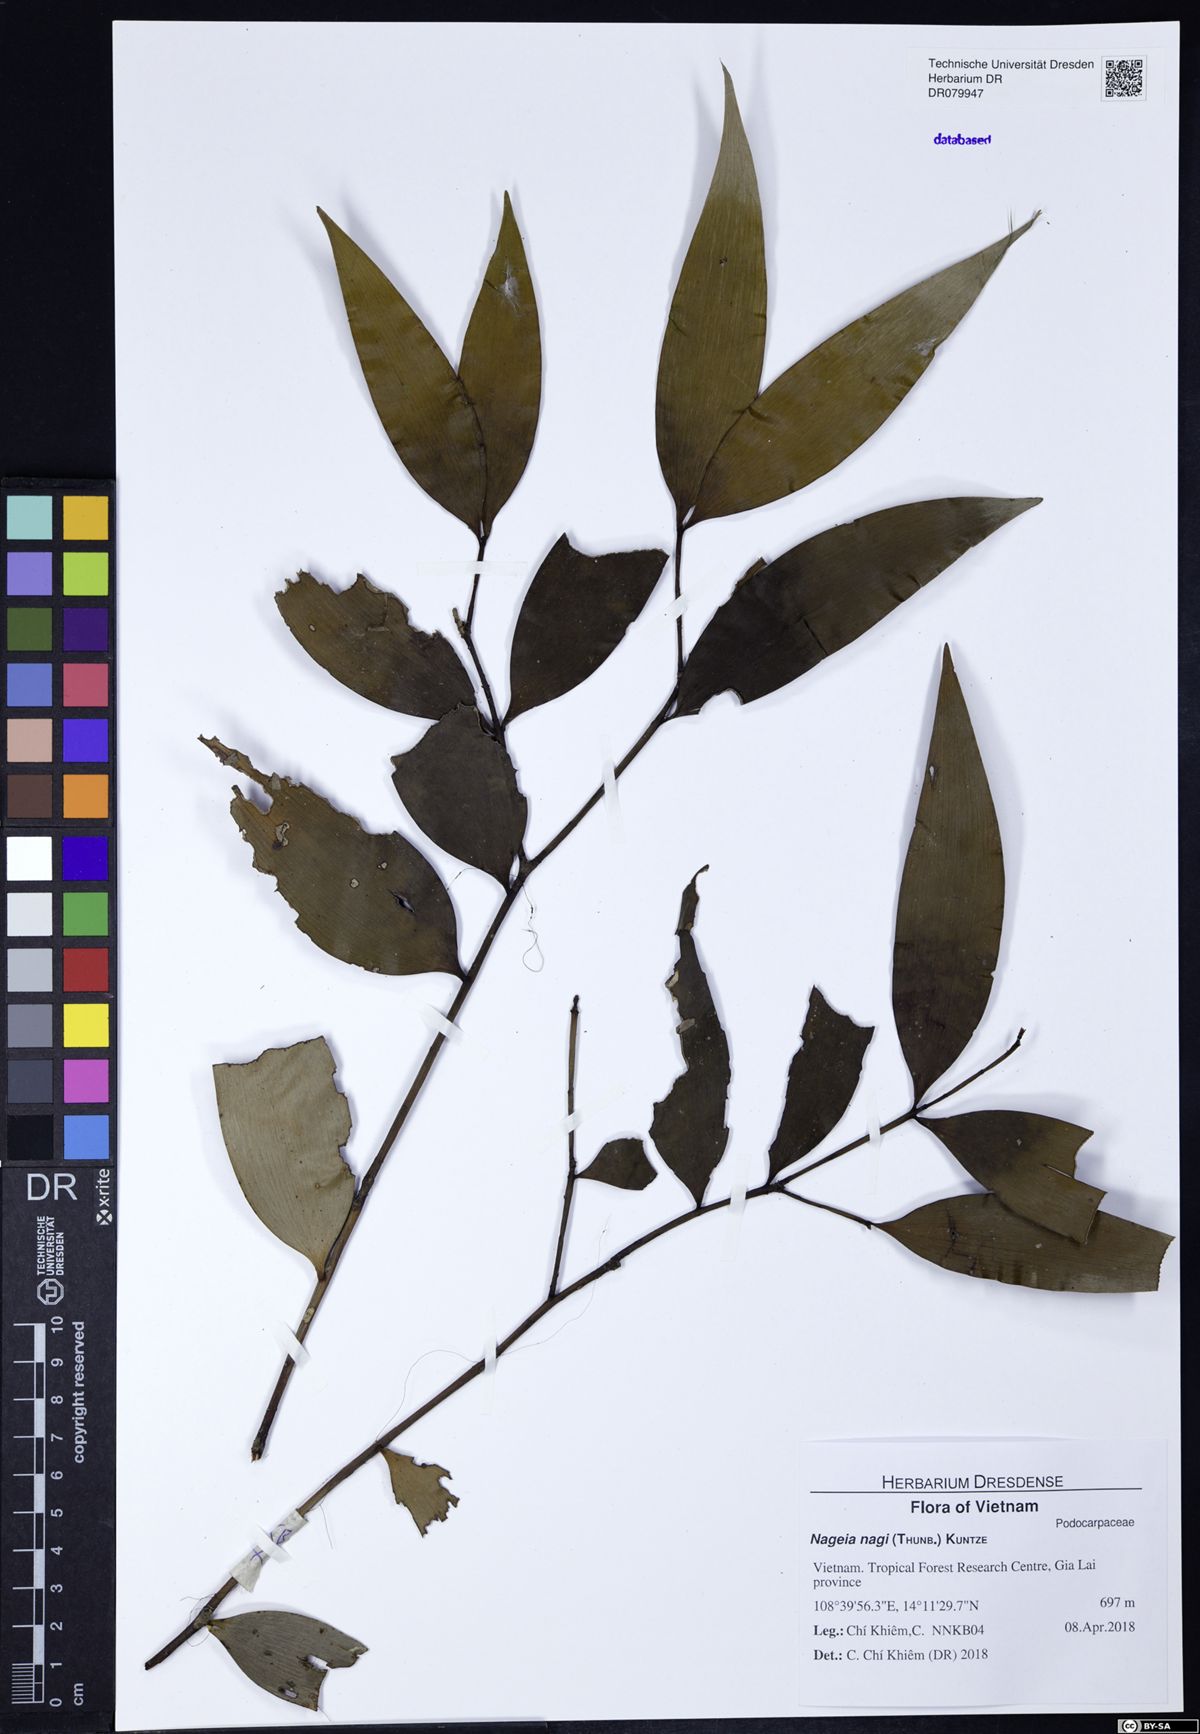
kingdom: Plantae
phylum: Tracheophyta
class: Pinopsida
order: Pinales
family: Podocarpaceae
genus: Nageia
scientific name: Nageia nagi
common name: Kaphal
